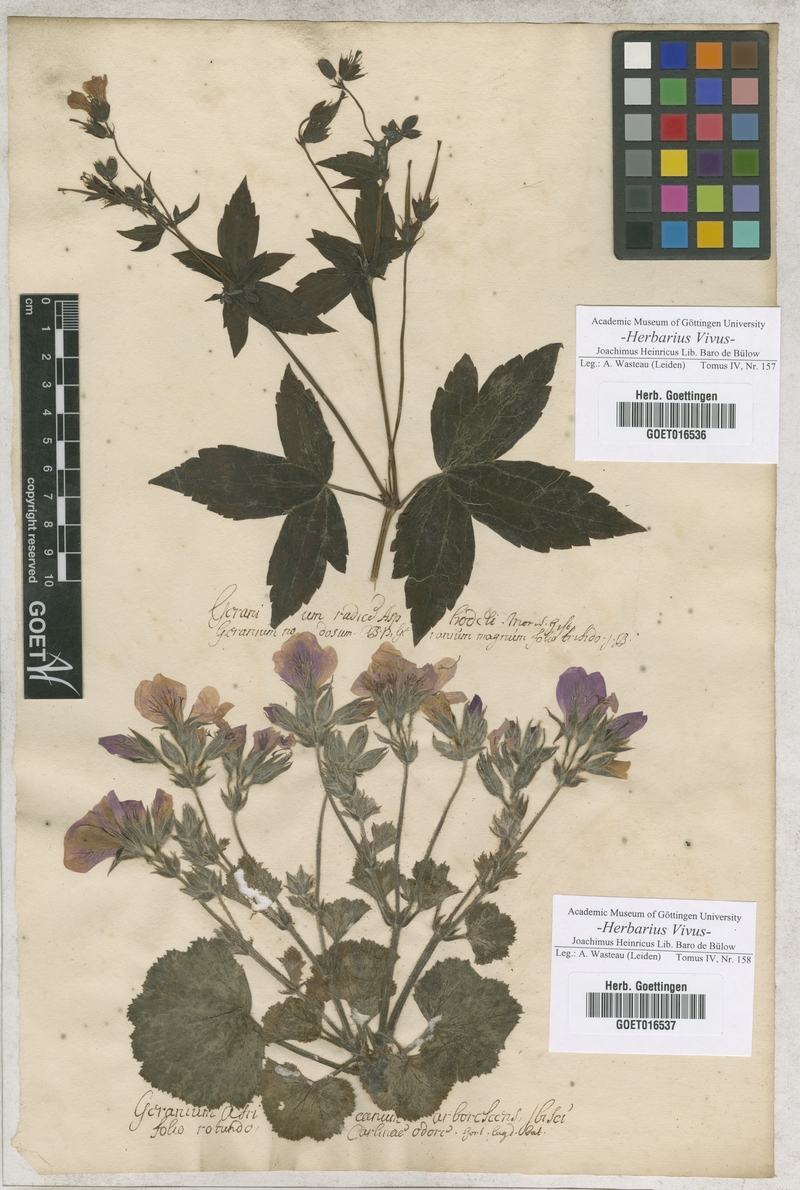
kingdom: Plantae
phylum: Tracheophyta
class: Magnoliopsida
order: Geraniales
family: Geraniaceae
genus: Geranium
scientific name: Geranium nodosum
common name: Knotted crane's-bill
